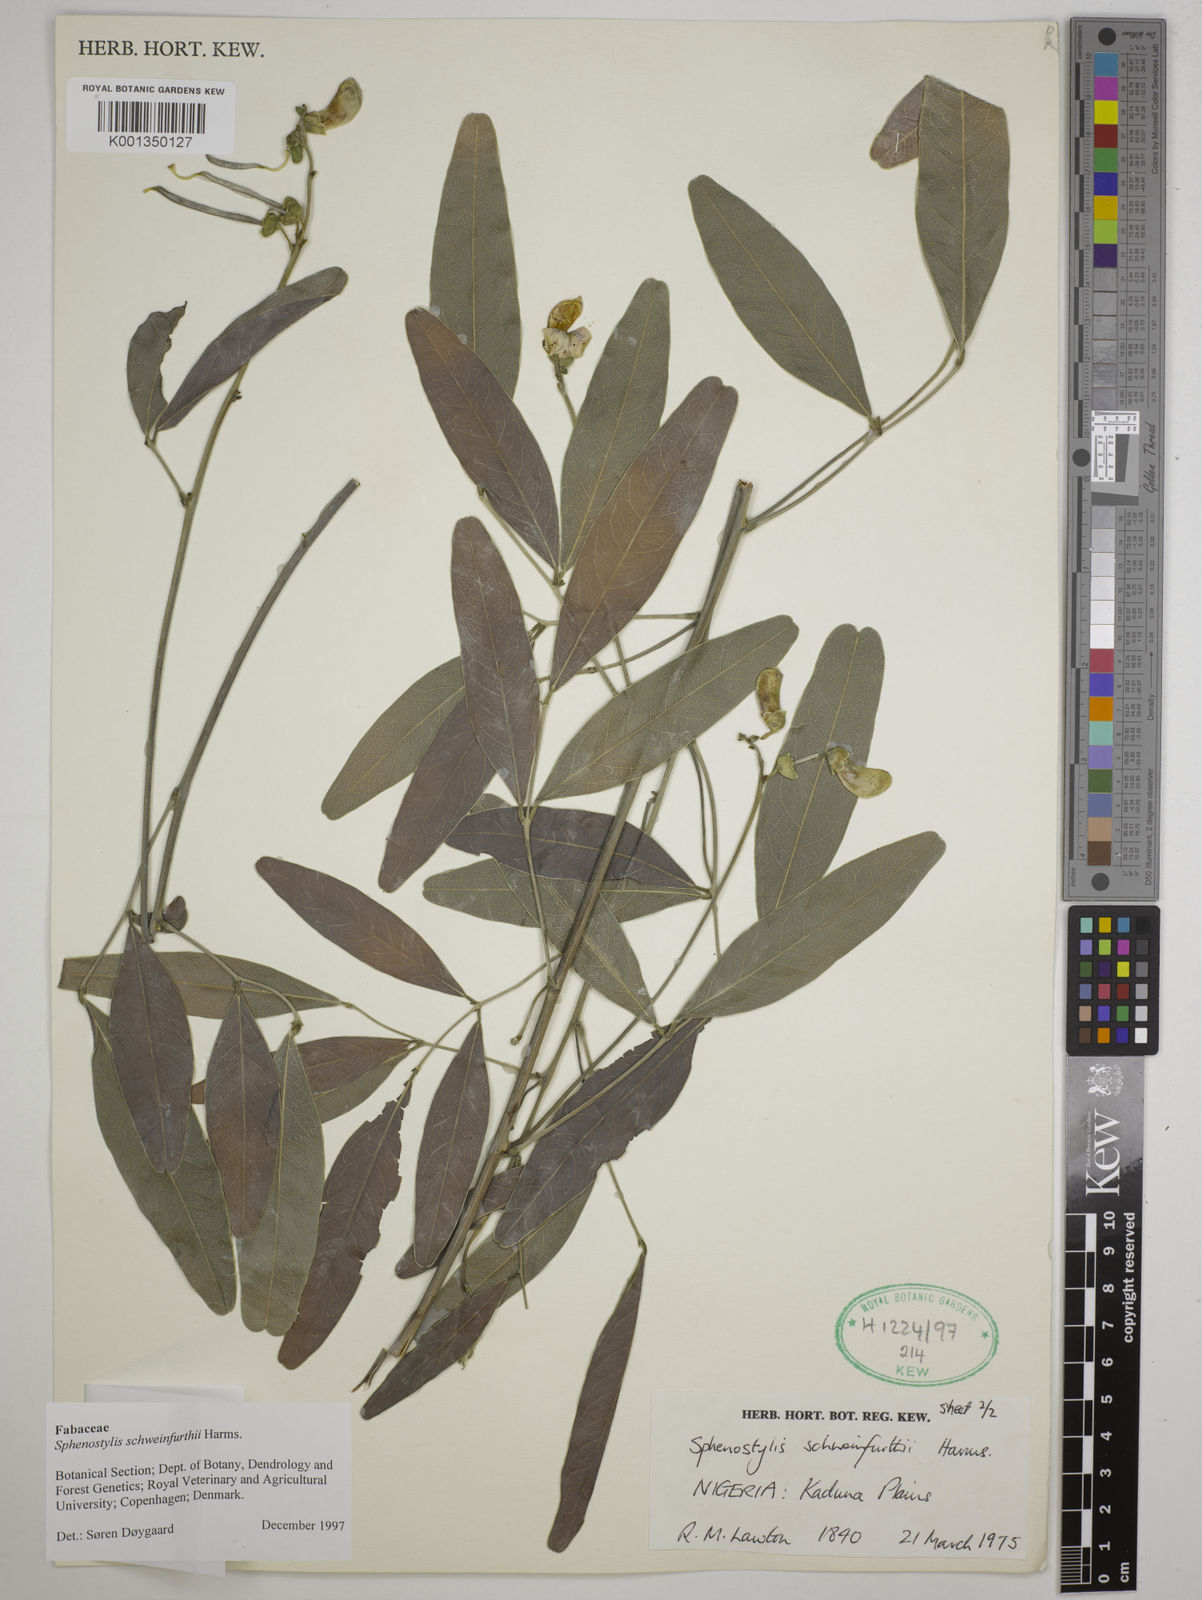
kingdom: Plantae
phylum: Tracheophyta
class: Magnoliopsida
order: Fabales
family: Fabaceae
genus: Sphenostylis
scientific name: Sphenostylis schweinfurthii
